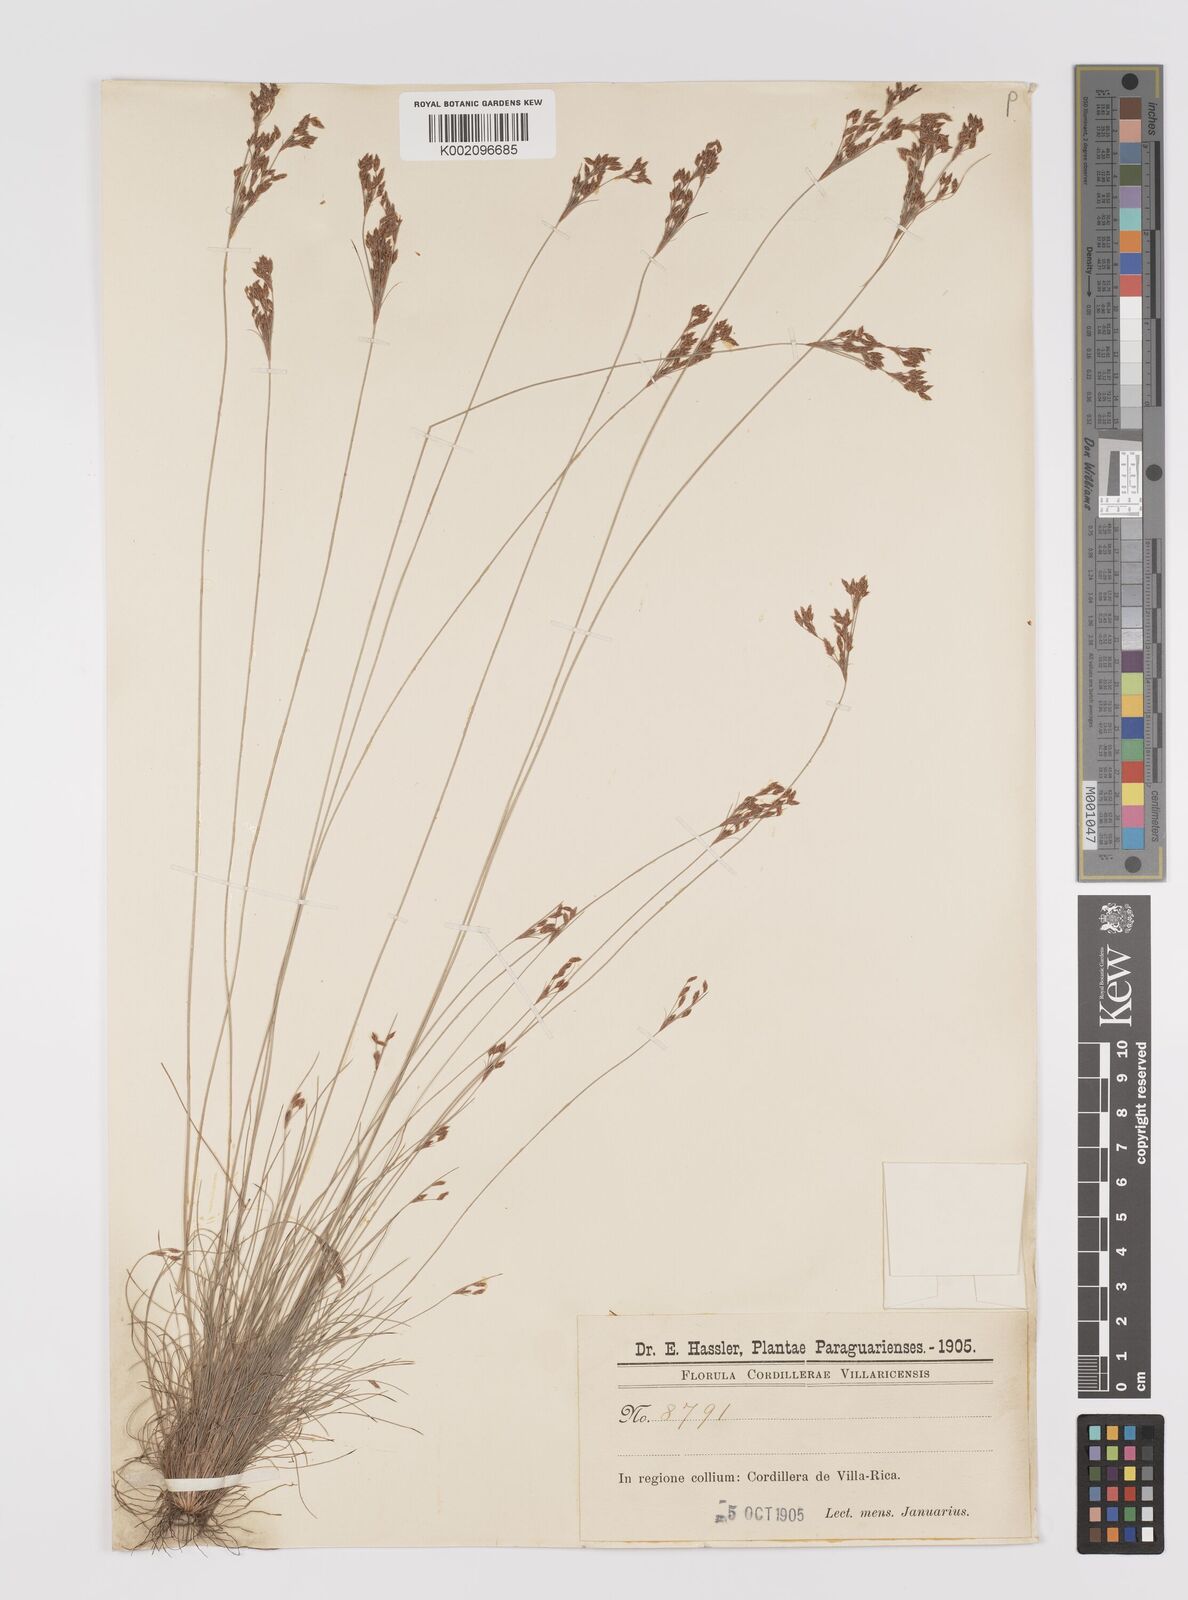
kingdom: Plantae
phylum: Tracheophyta
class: Liliopsida
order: Poales
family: Cyperaceae
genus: Bulbostylis
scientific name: Bulbostylis communis
